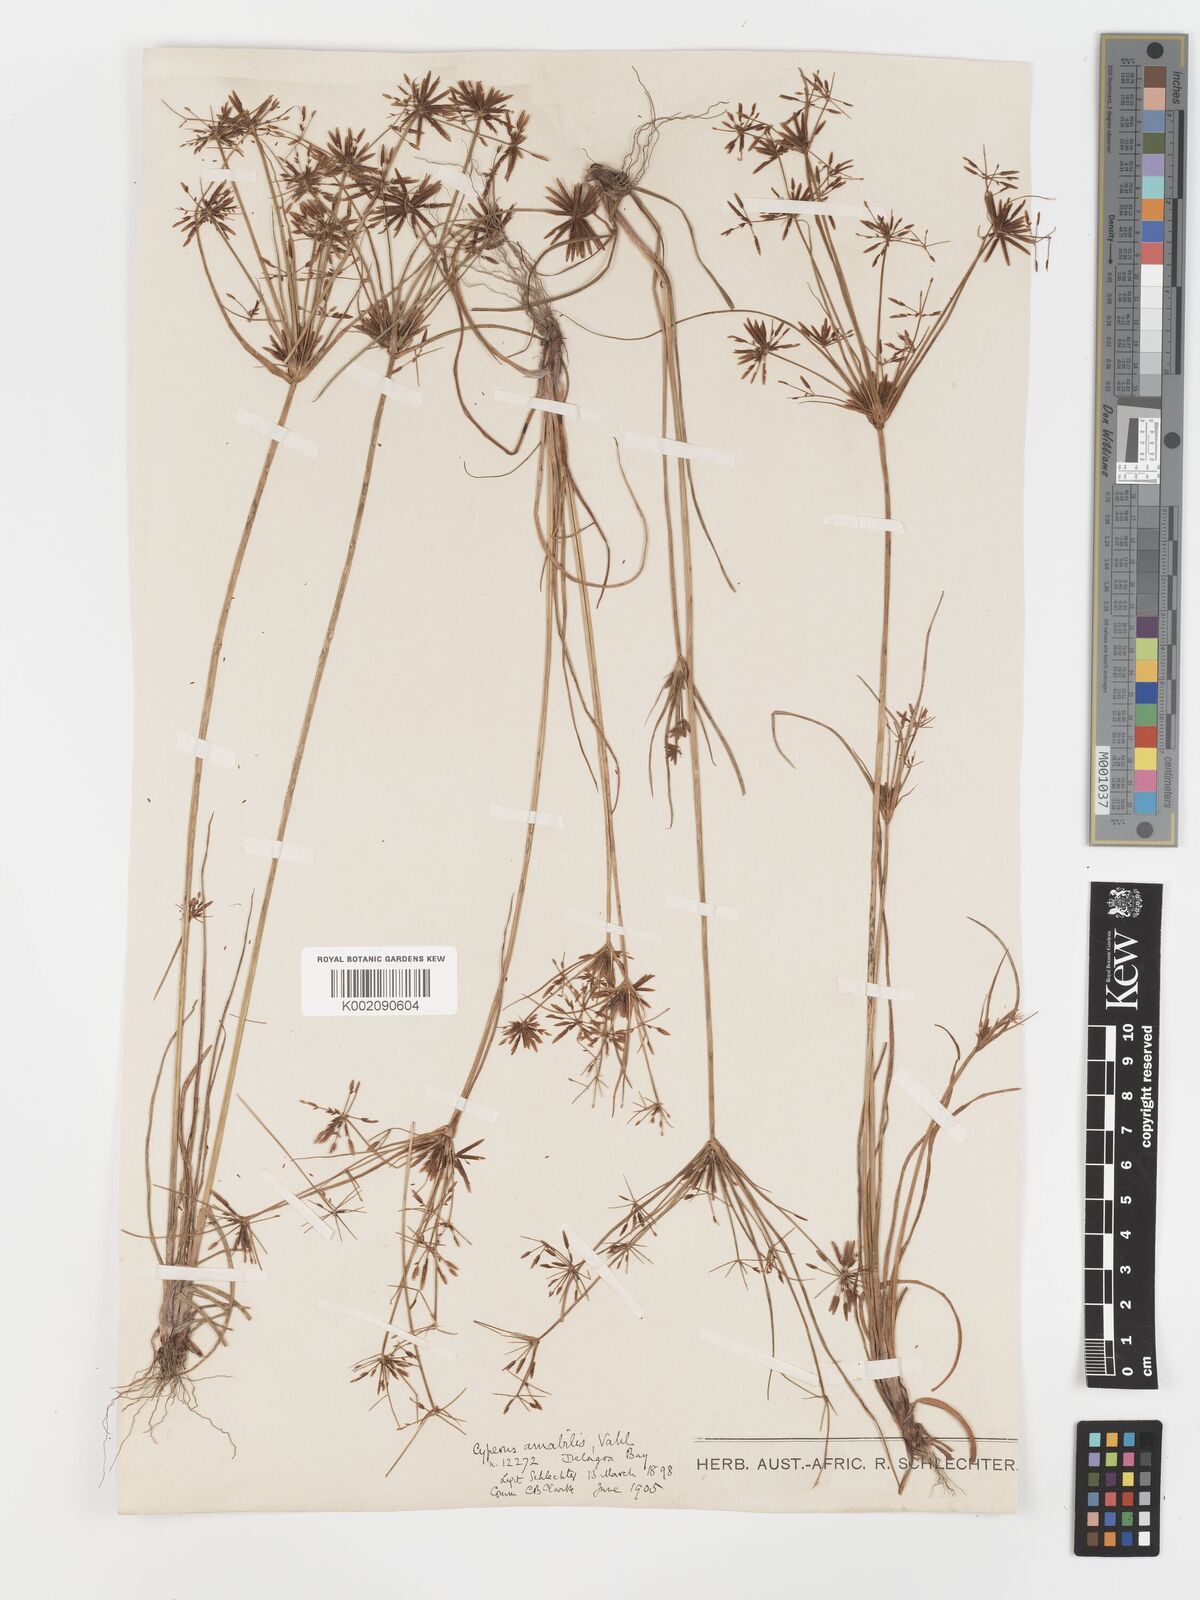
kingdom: Plantae
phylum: Tracheophyta
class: Liliopsida
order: Poales
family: Cyperaceae
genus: Cyperus
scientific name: Cyperus amabilis
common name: Foothill flat sedge
